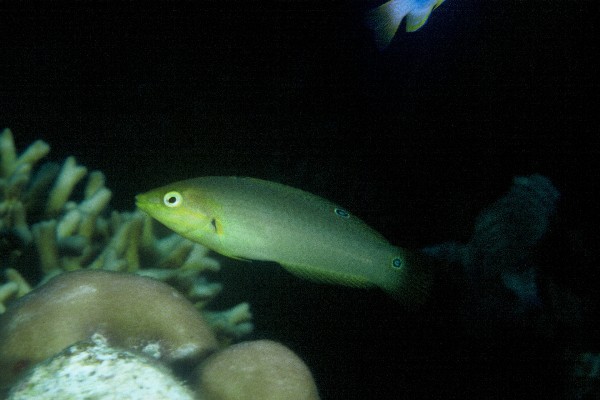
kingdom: Animalia
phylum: Chordata
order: Perciformes
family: Labridae
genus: Halichoeres
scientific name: Halichoeres solorensis
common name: Green wrasse
